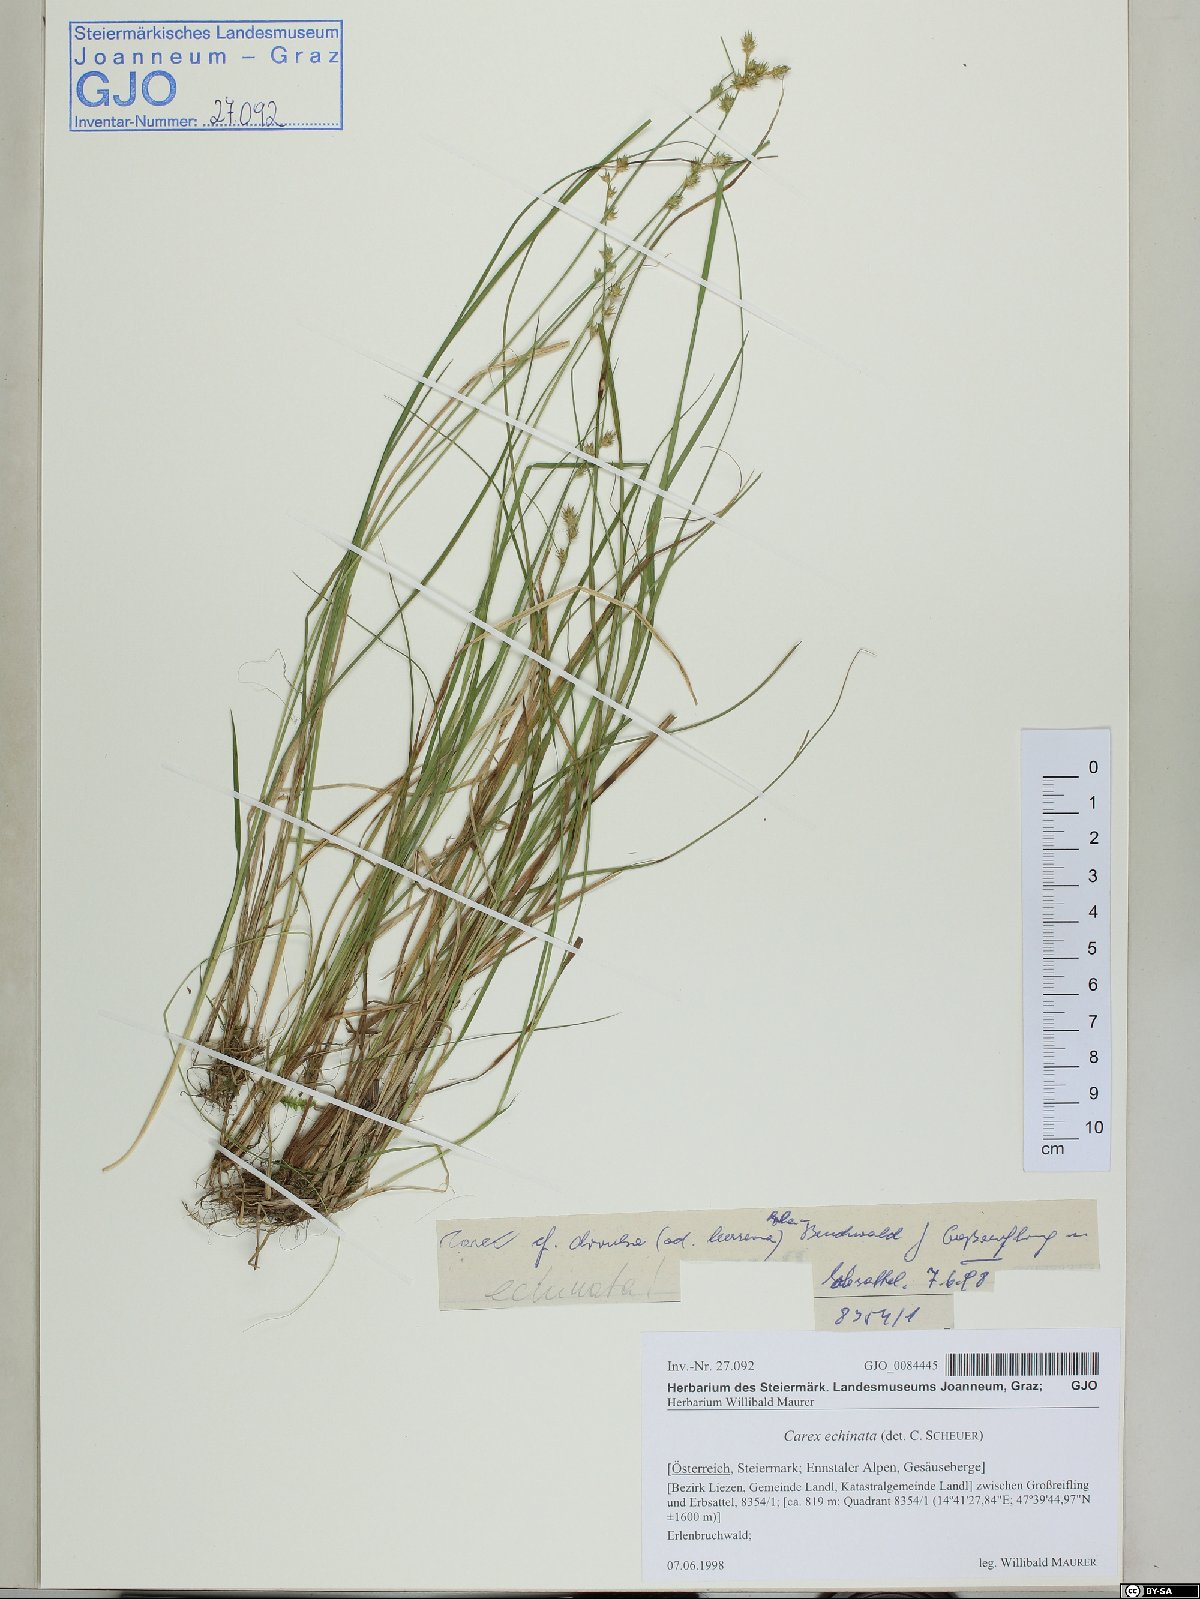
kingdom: Plantae
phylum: Tracheophyta
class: Liliopsida
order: Poales
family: Cyperaceae
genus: Carex
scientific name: Carex echinata
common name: Star sedge
